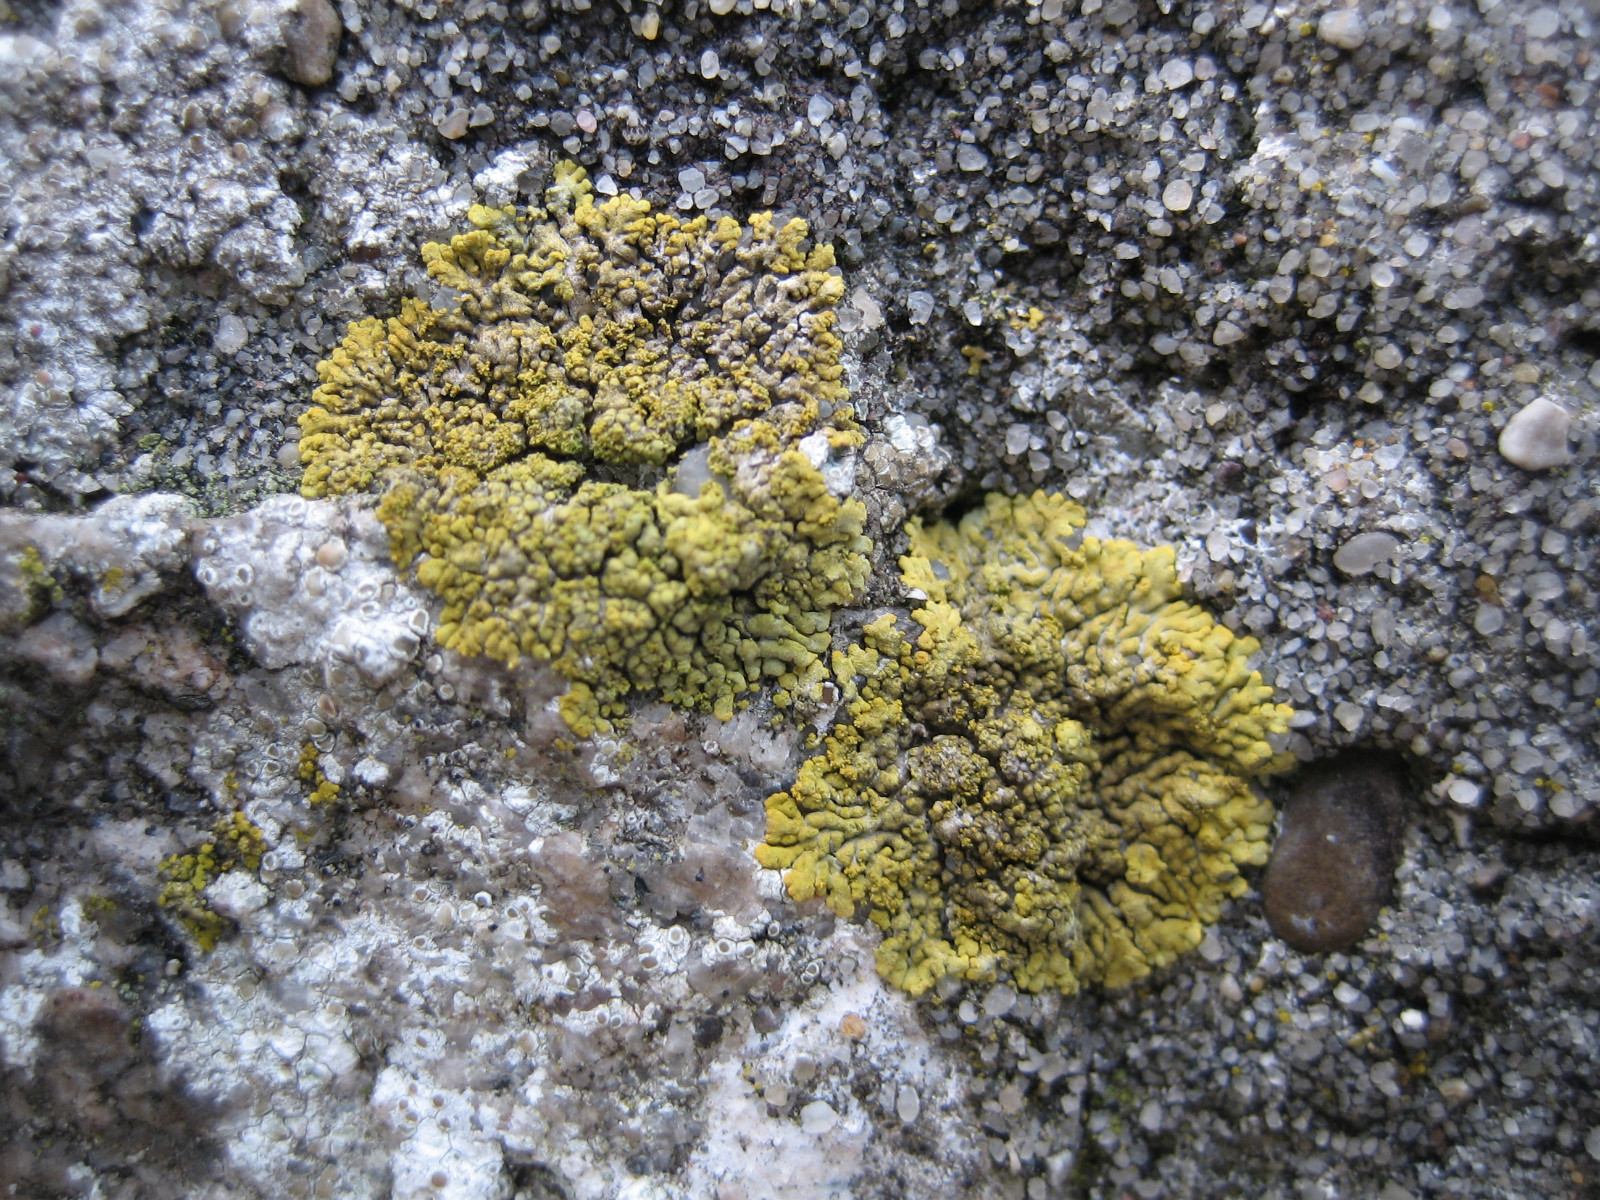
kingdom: Fungi
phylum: Ascomycota
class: Lecanoromycetes
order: Teloschistales
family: Teloschistaceae
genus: Calogaya
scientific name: Calogaya decipiens
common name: knudret orangelav
